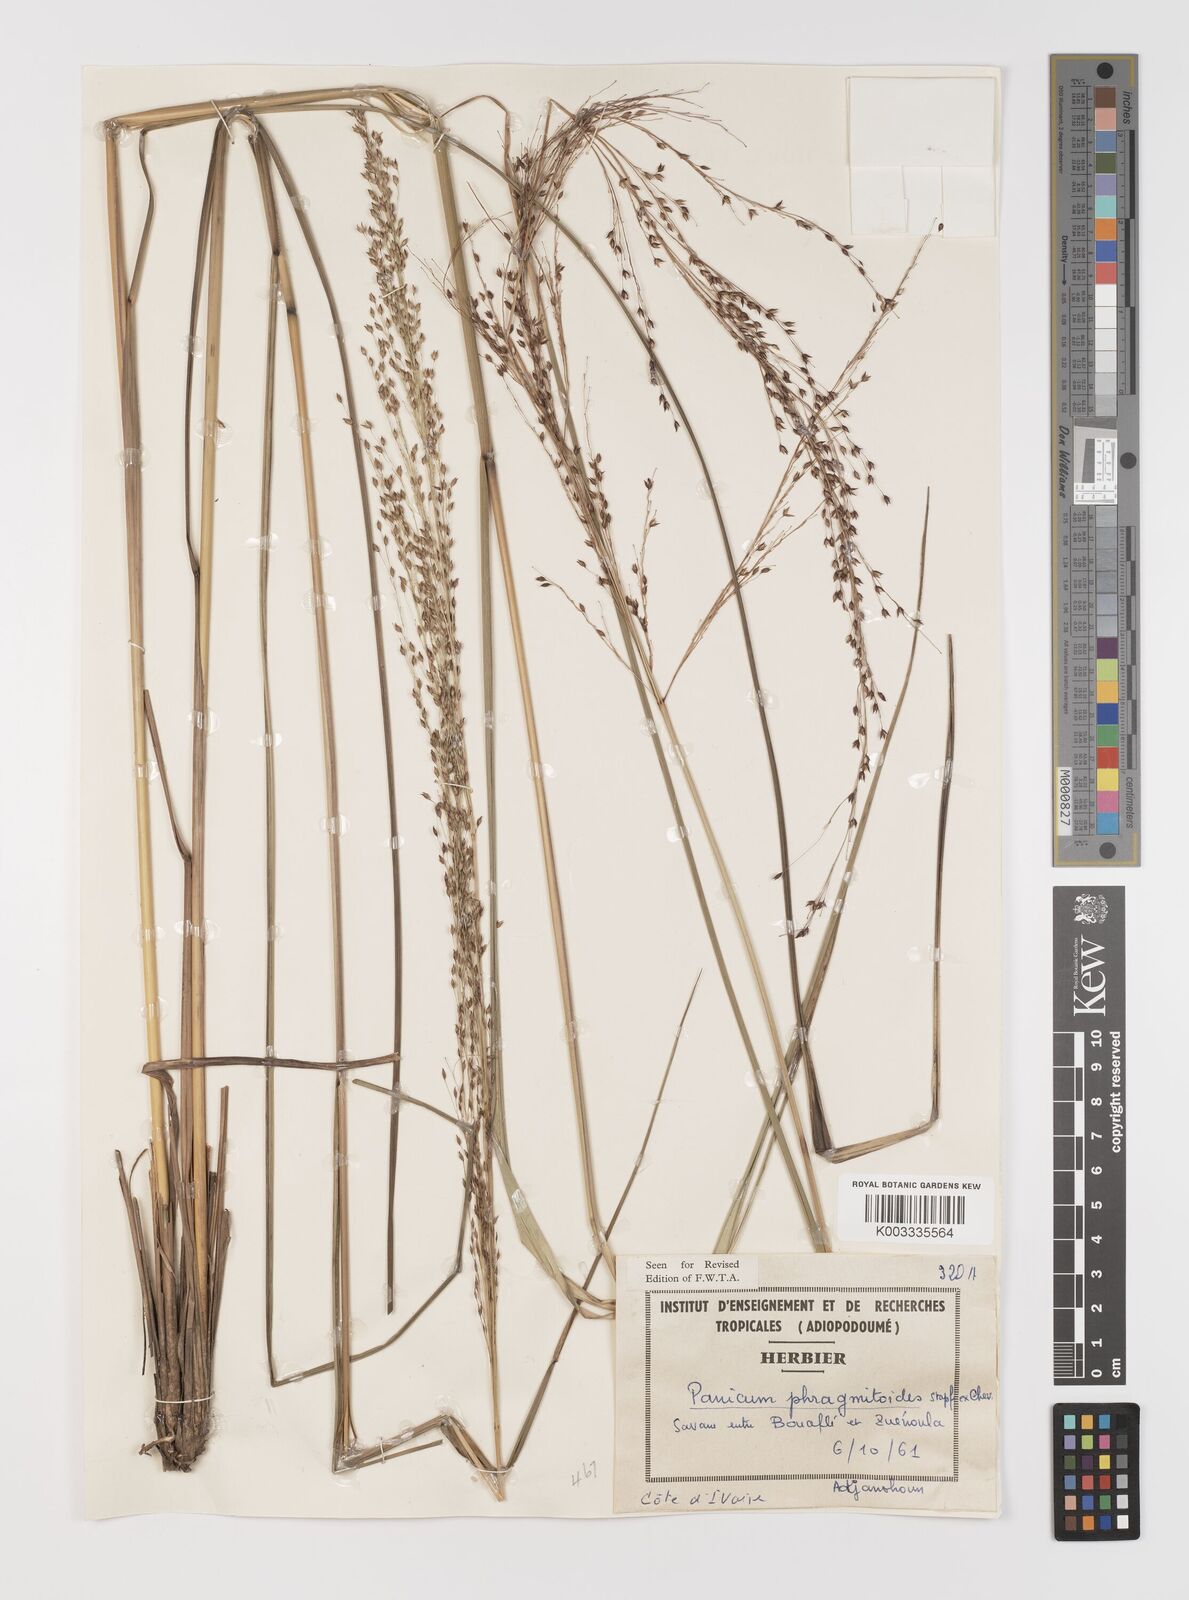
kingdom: Plantae
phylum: Tracheophyta
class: Liliopsida
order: Poales
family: Poaceae
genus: Panicum
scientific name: Panicum phragmitoides
